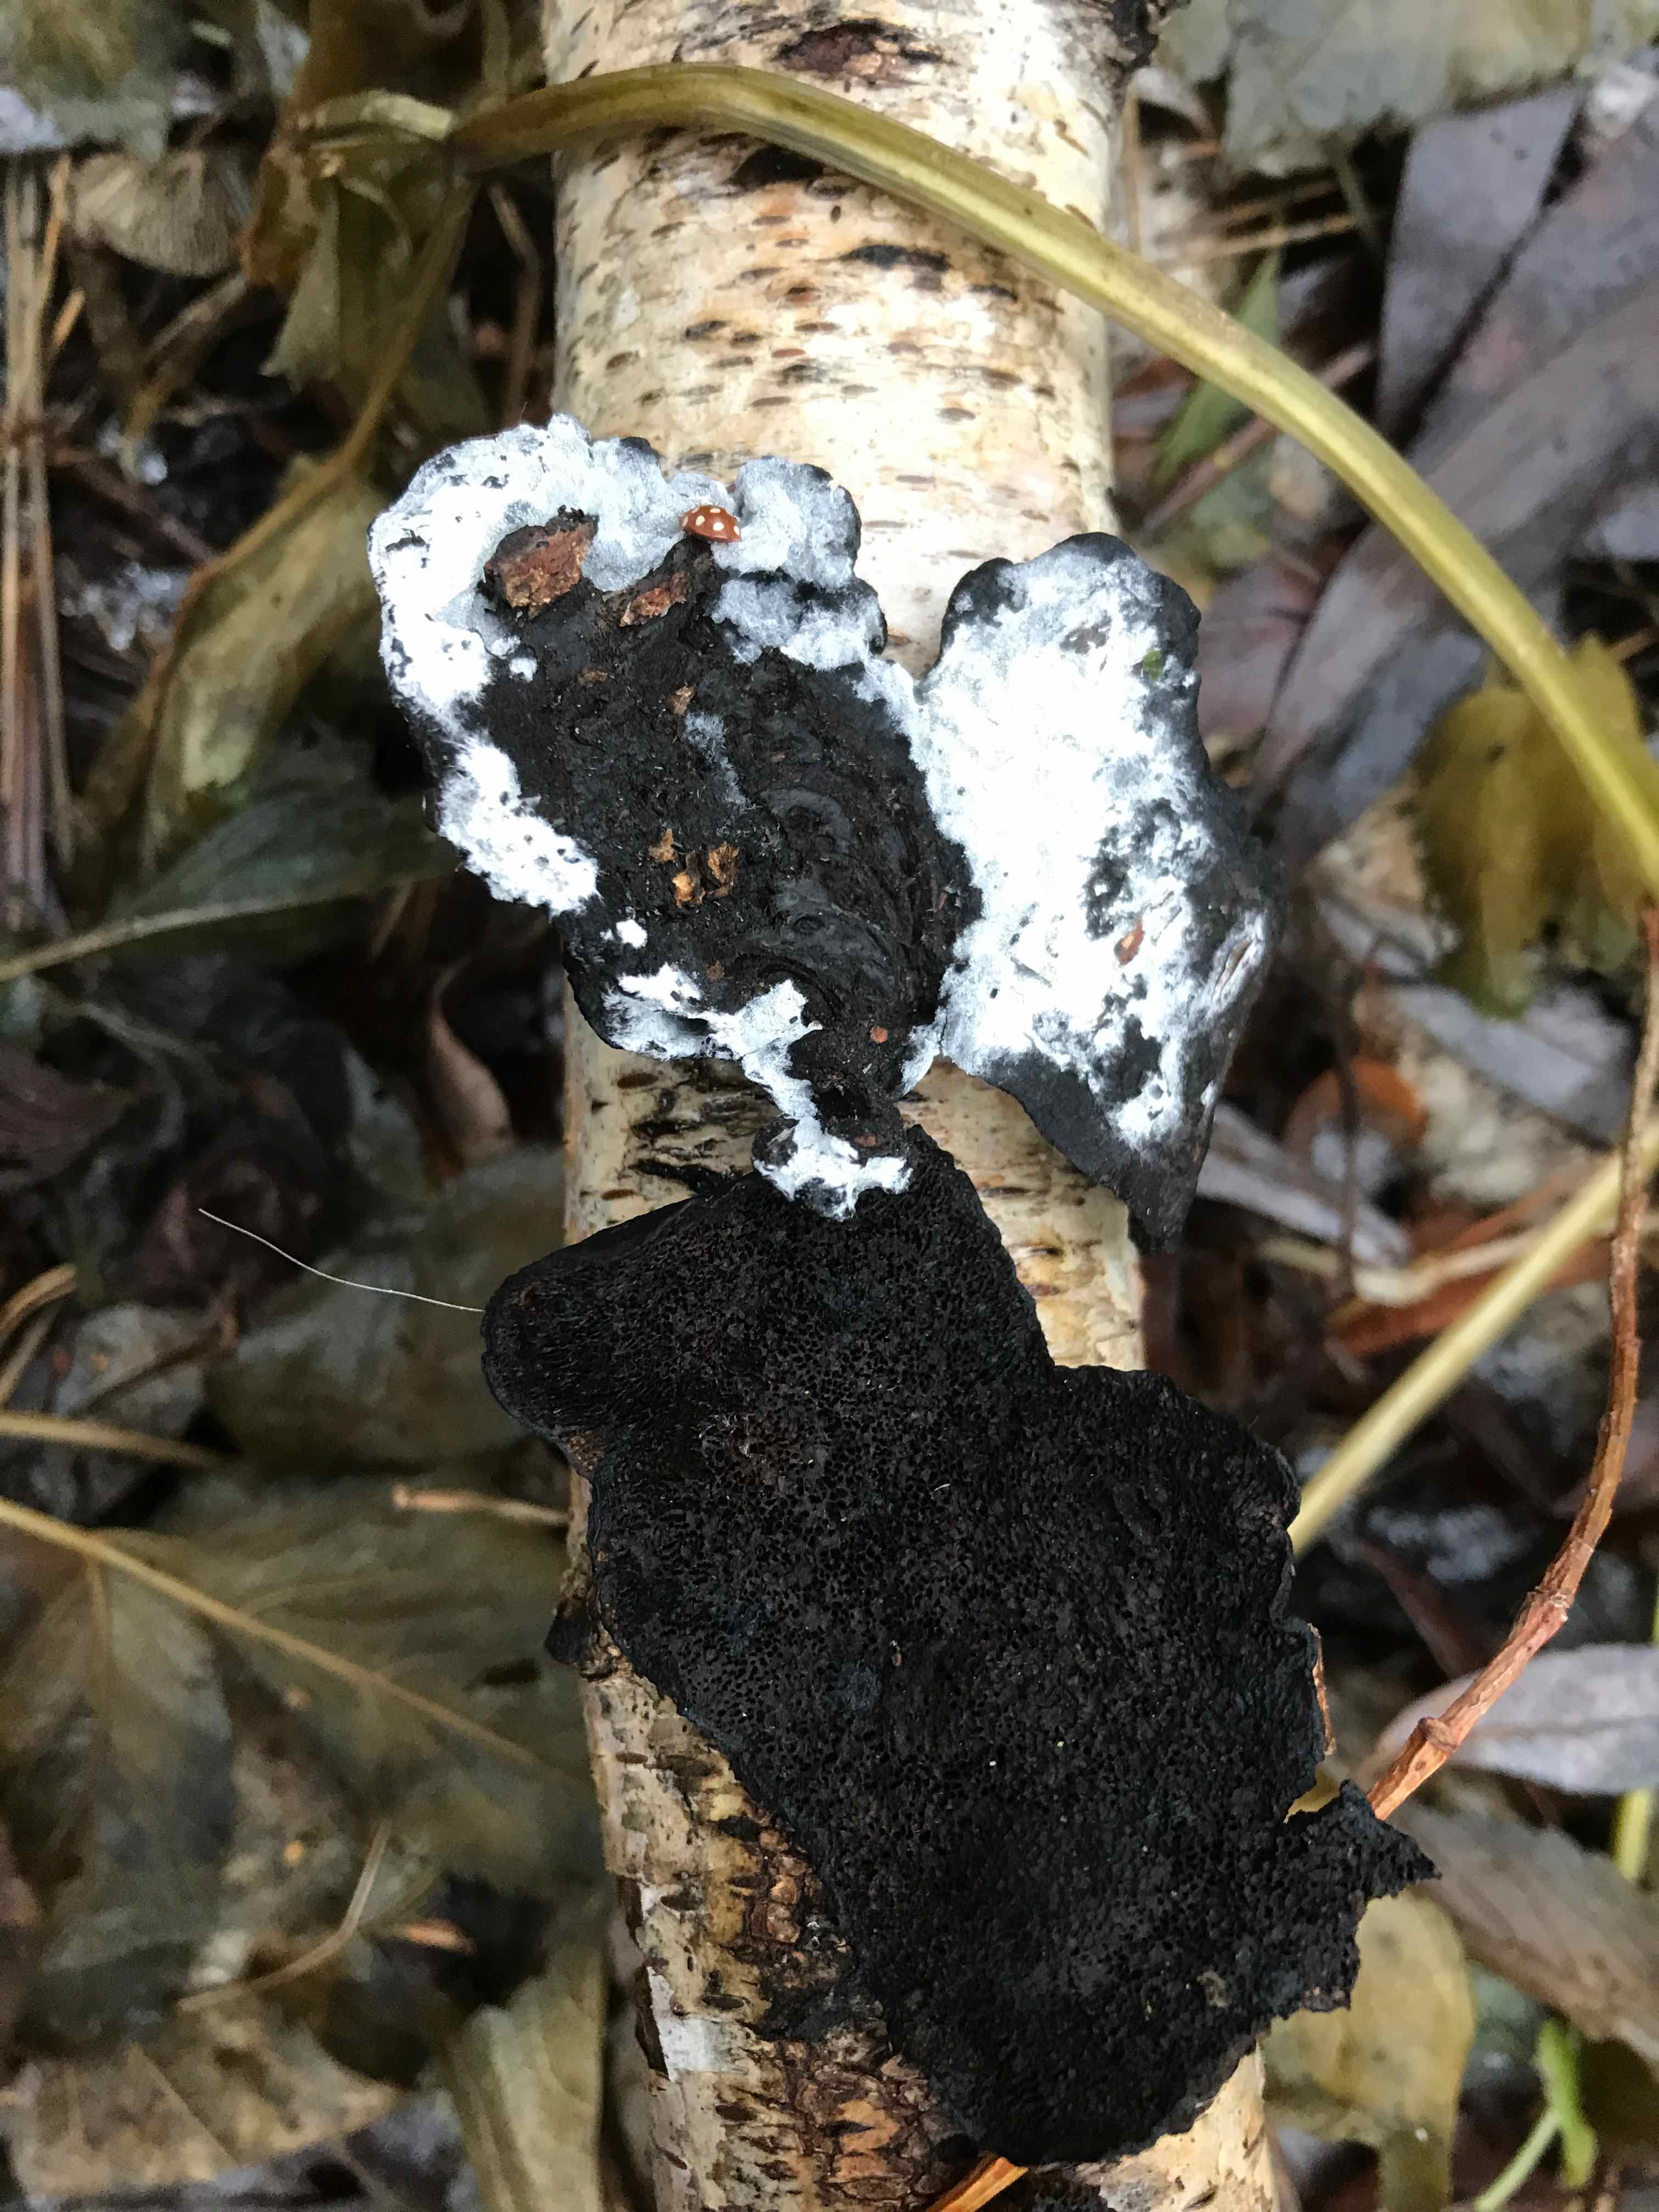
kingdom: Fungi
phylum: Basidiomycota
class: Agaricomycetes
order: Hymenochaetales
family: Hymenochaetaceae
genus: Inonotus
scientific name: Inonotus obliquus
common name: birke-spejlporesvamp
